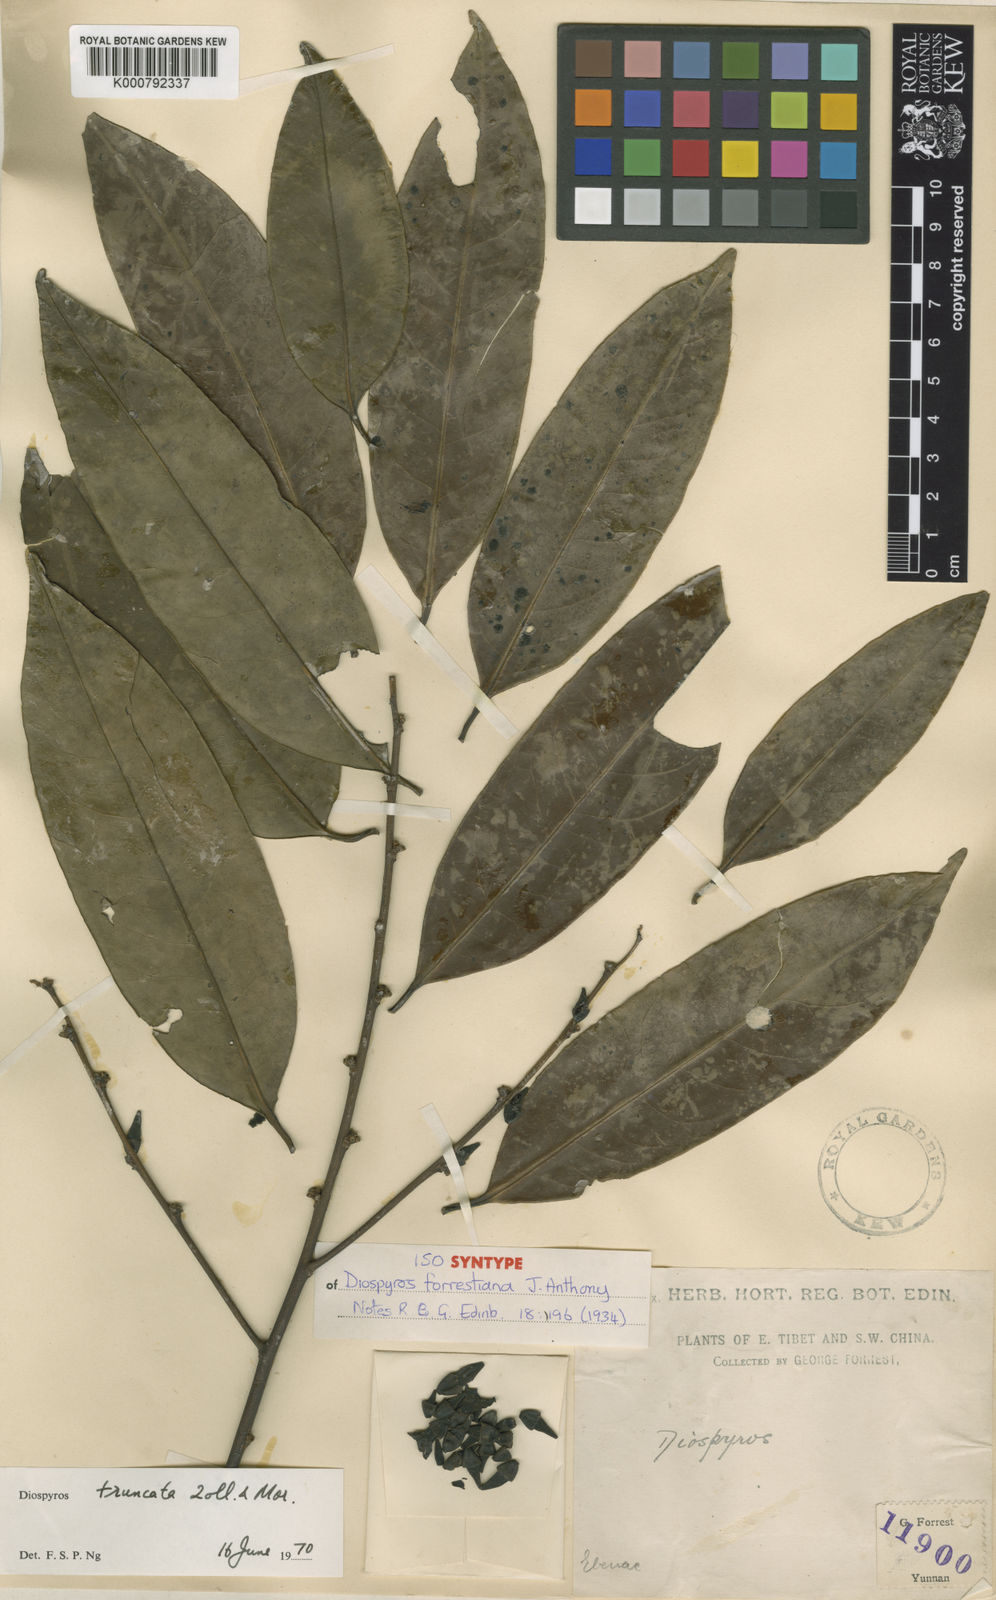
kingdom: Plantae
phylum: Tracheophyta
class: Magnoliopsida
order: Ericales
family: Ebenaceae
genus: Diospyros
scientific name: Diospyros forrestii
